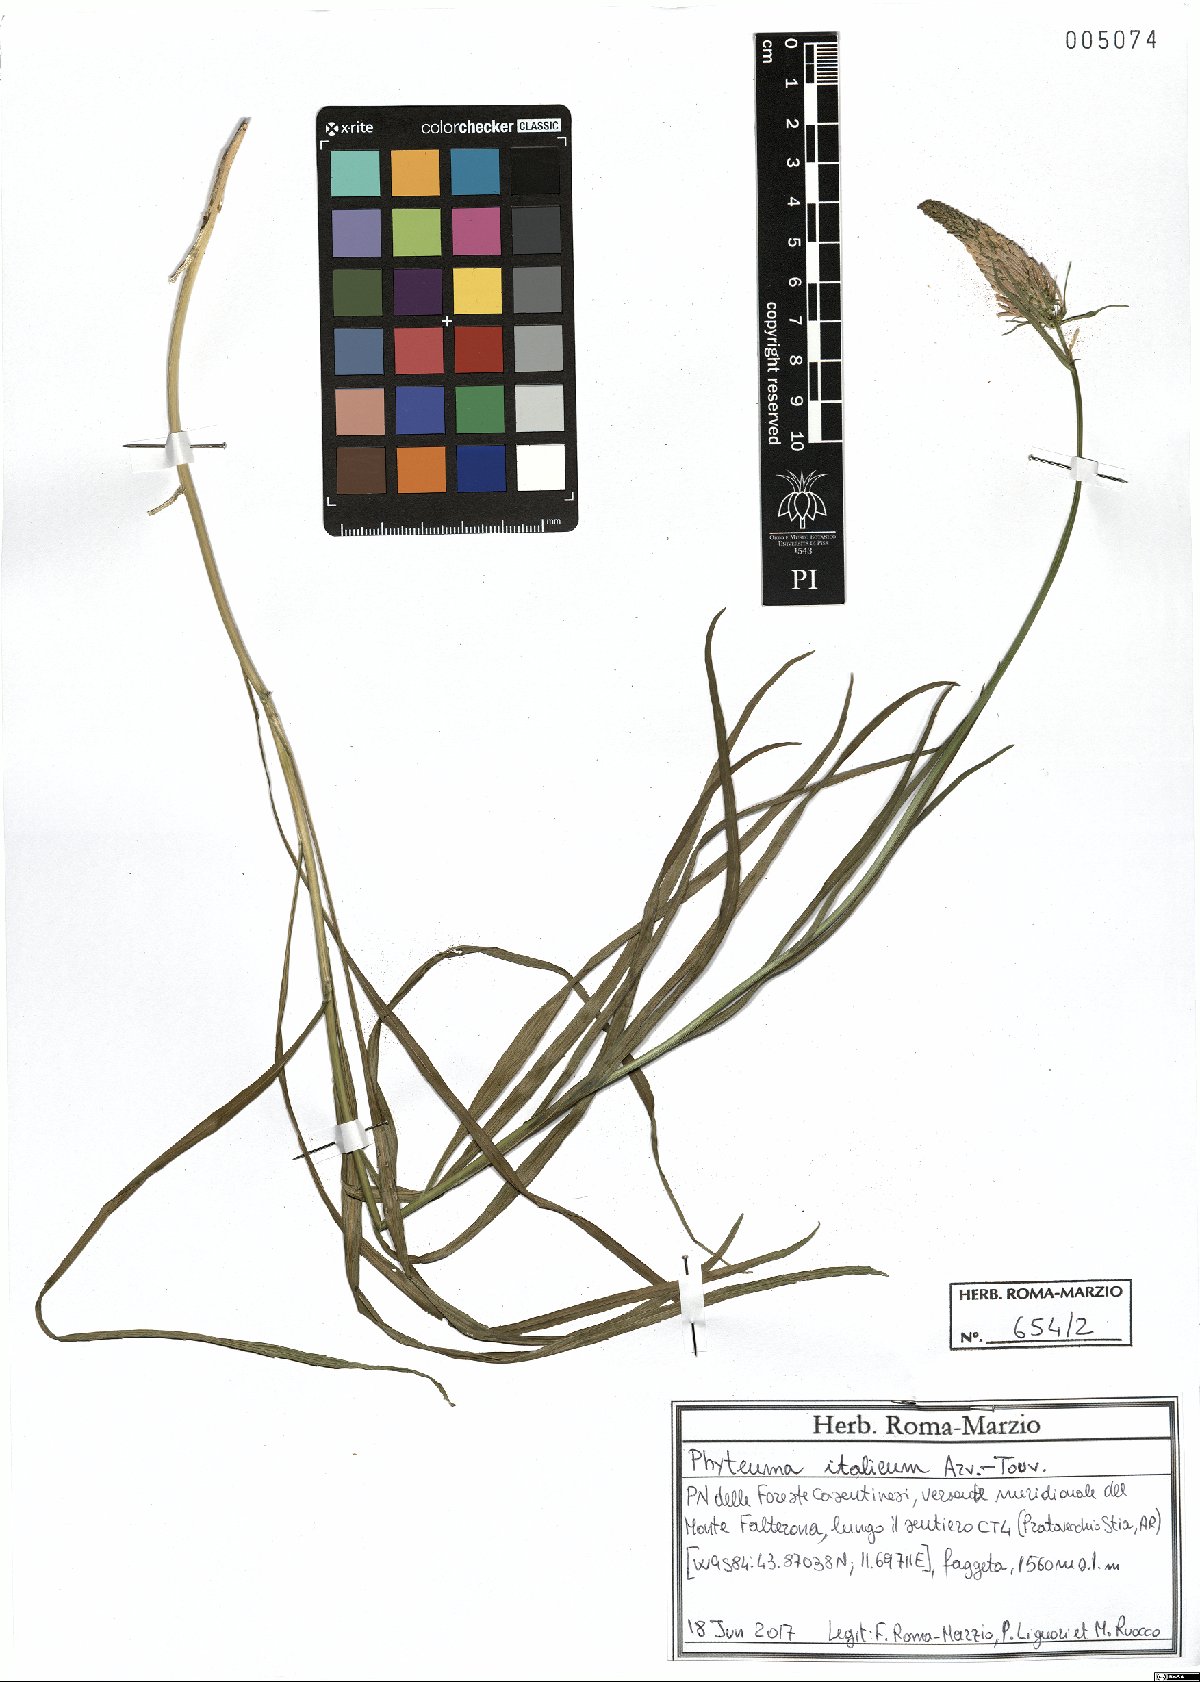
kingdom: Plantae
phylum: Tracheophyta
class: Magnoliopsida
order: Asterales
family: Campanulaceae
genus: Phyteuma
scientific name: Phyteuma italicum
